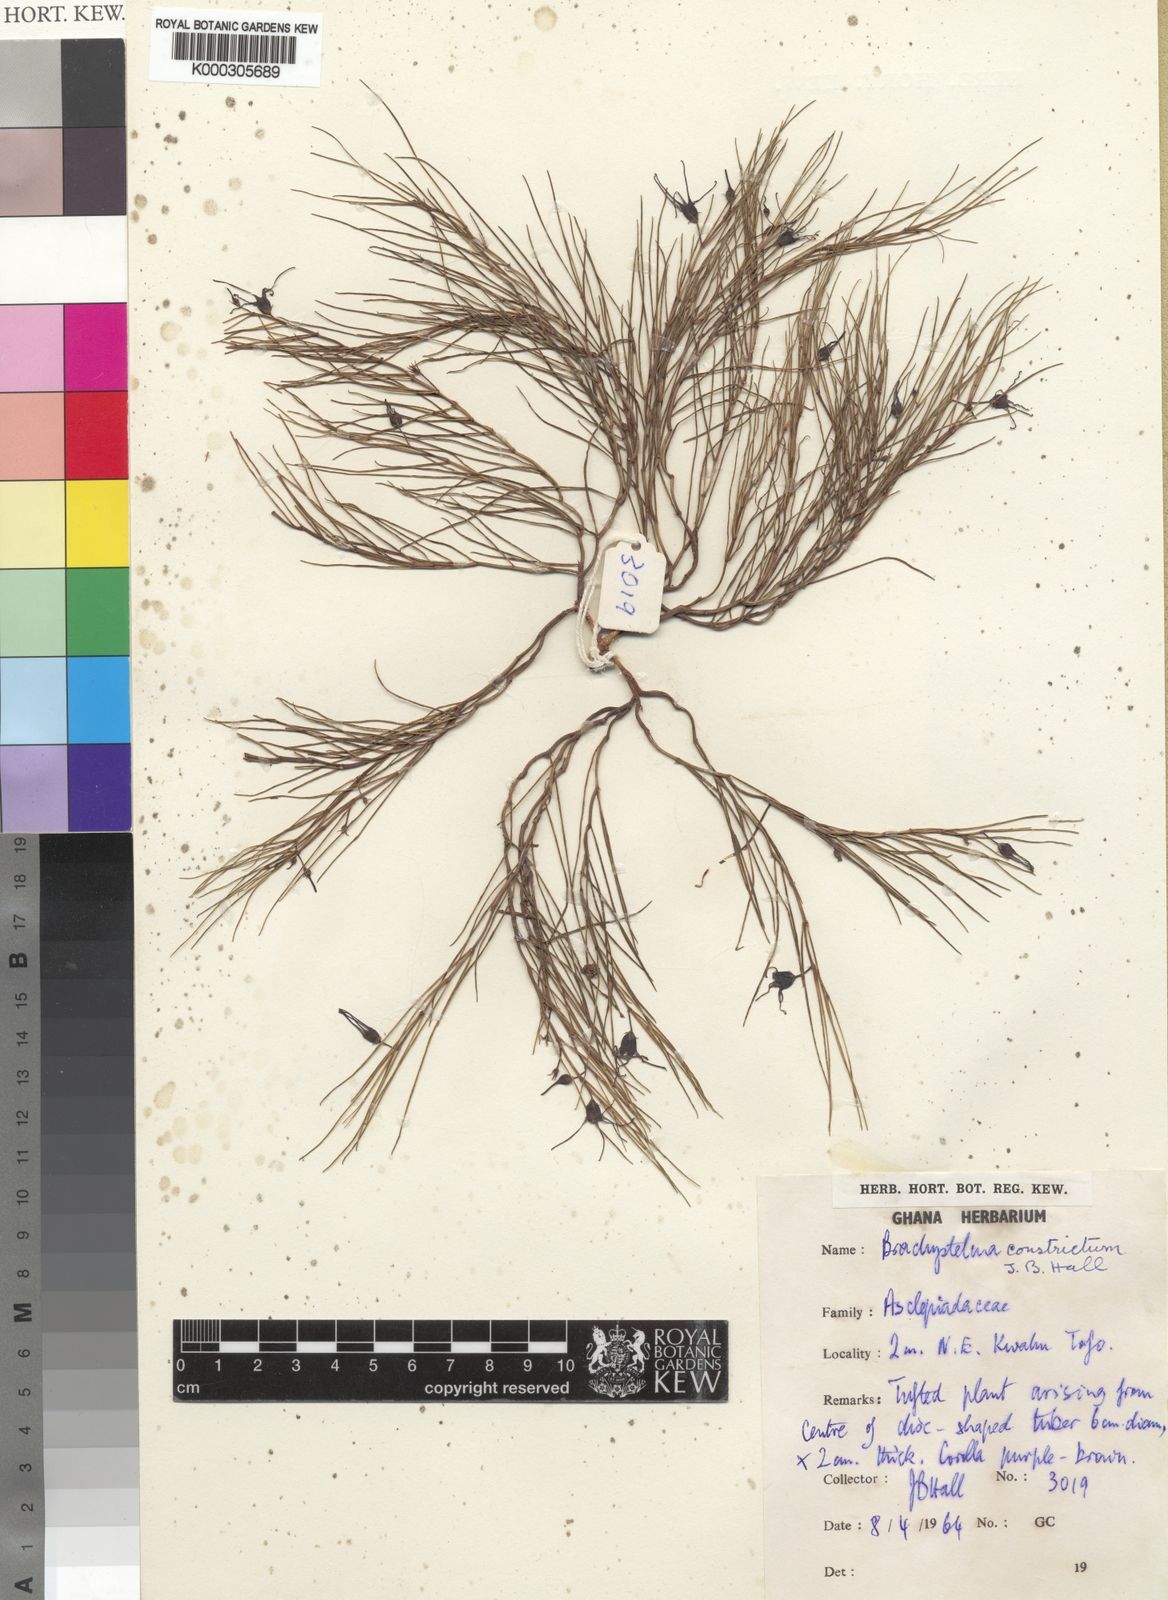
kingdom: Plantae
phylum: Tracheophyta
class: Magnoliopsida
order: Gentianales
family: Apocynaceae
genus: Ceropegia
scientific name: Ceropegia johnstonii
